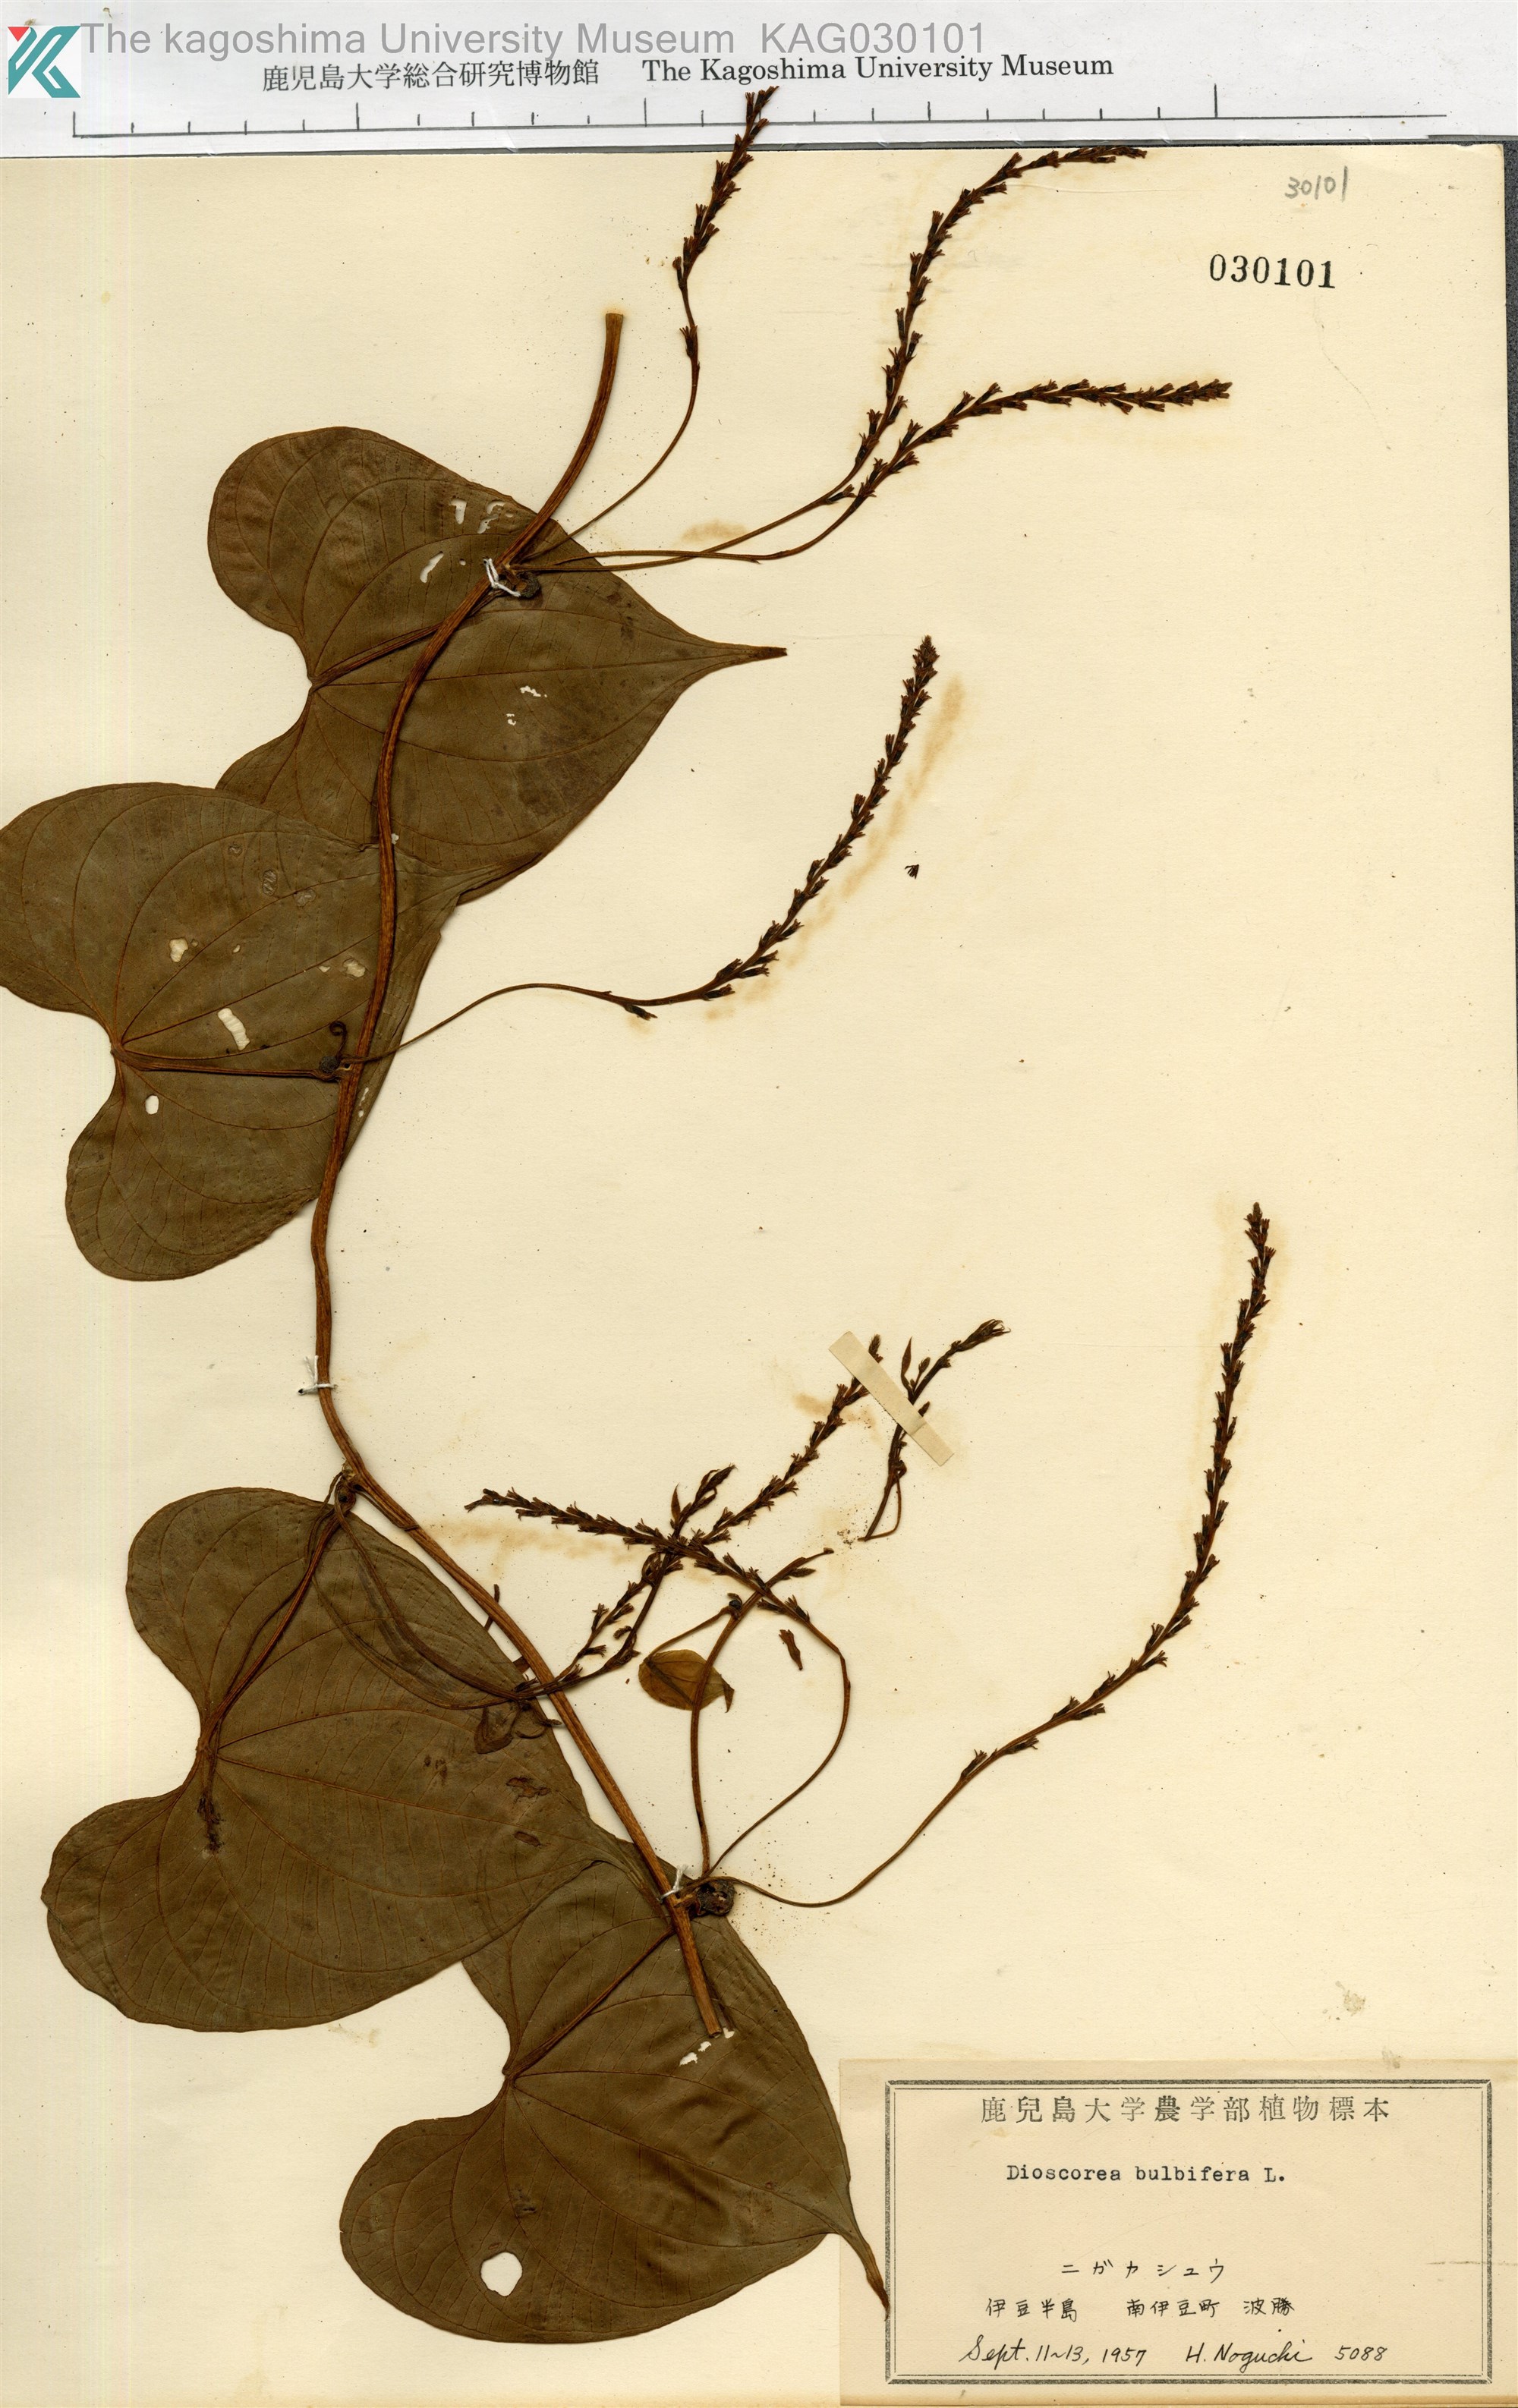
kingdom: Plantae
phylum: Tracheophyta
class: Liliopsida
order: Dioscoreales
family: Dioscoreaceae
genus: Dioscorea
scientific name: Dioscorea bulbifera
